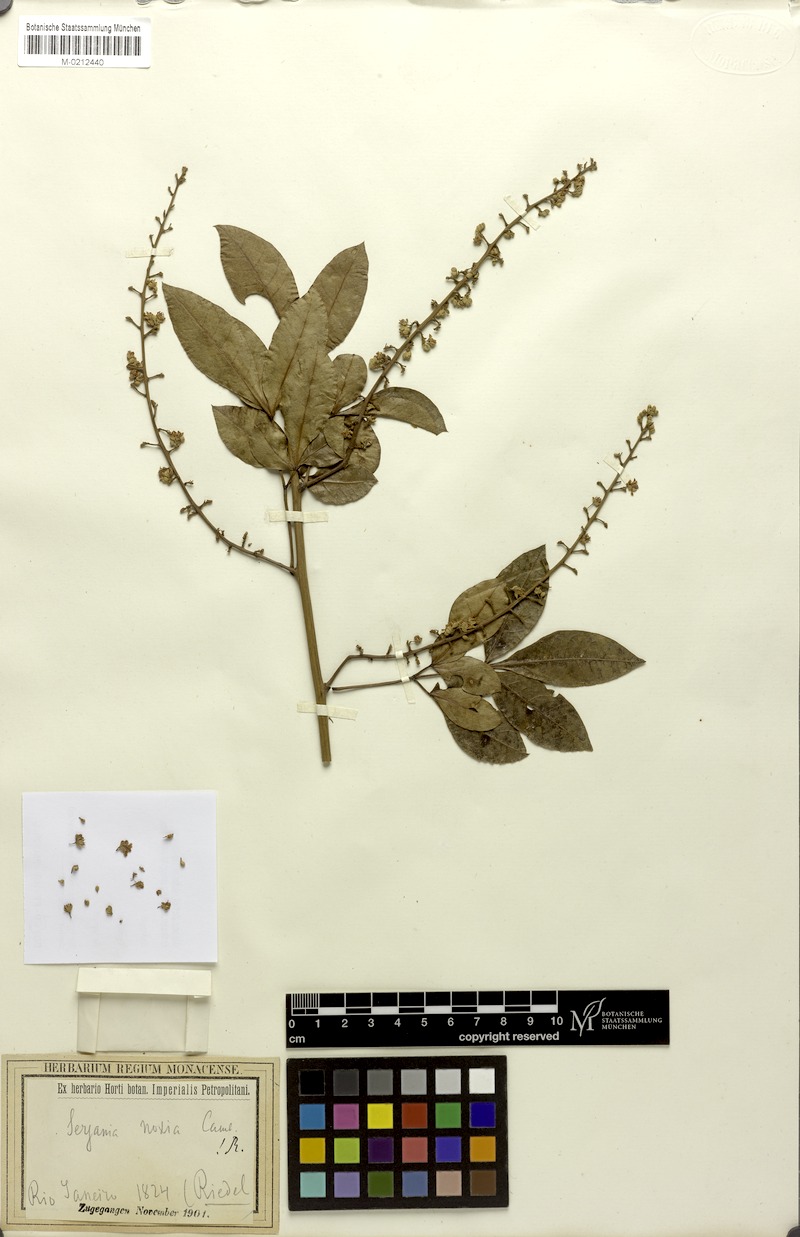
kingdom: Plantae
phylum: Tracheophyta
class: Magnoliopsida
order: Sapindales
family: Sapindaceae
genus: Serjania
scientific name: Serjania noxia
